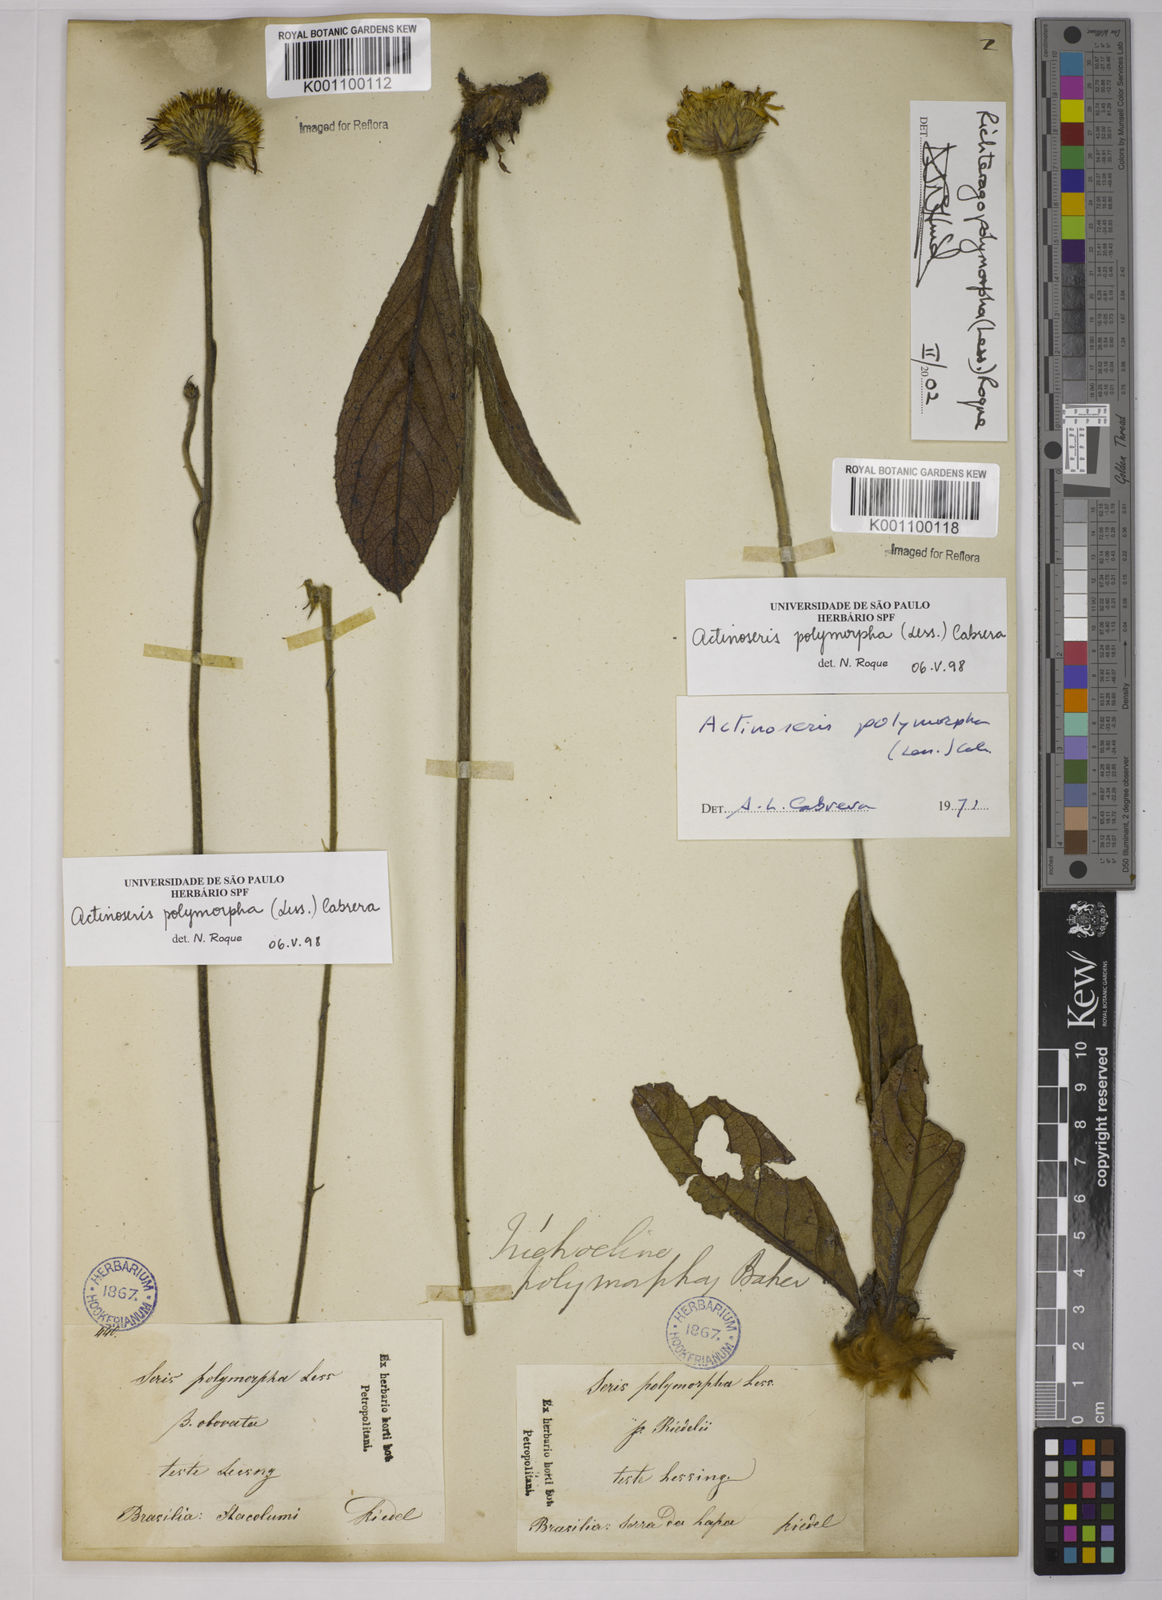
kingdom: Plantae
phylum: Tracheophyta
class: Magnoliopsida
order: Asterales
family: Asteraceae
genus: Richterago
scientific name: Richterago polymorpha
